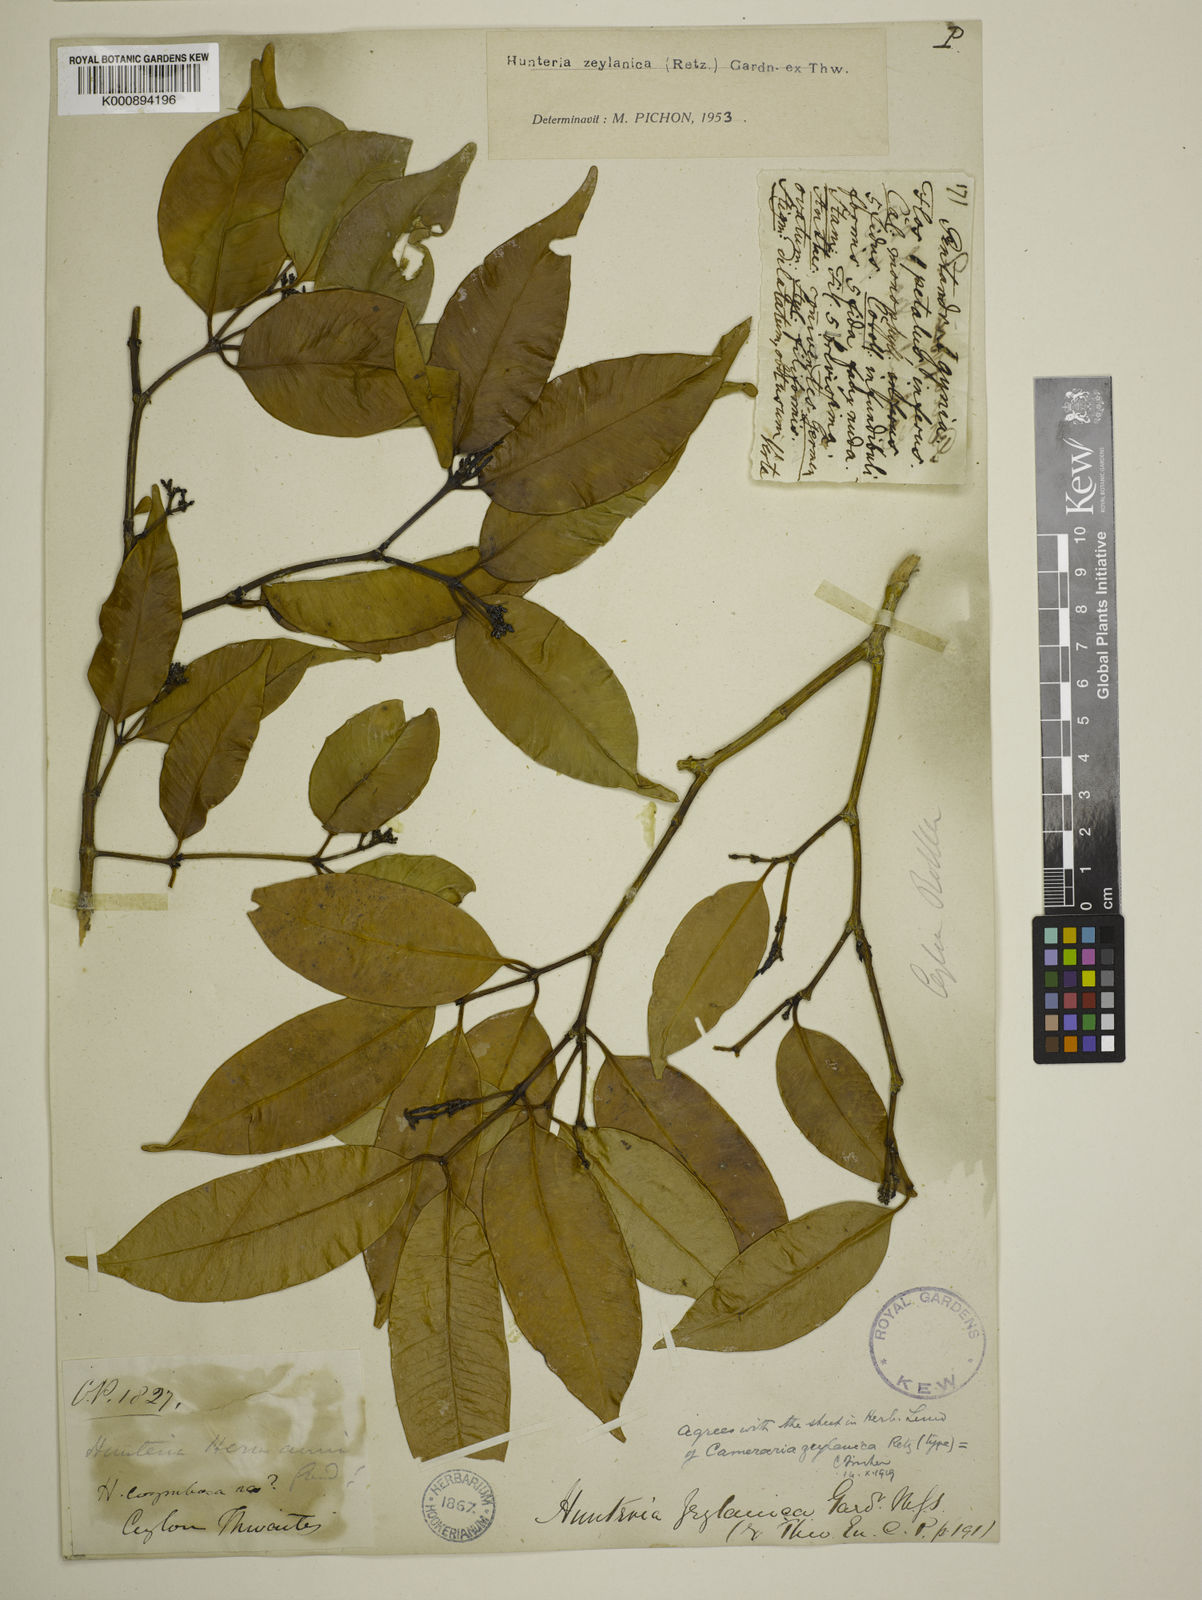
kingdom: Plantae
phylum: Tracheophyta
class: Magnoliopsida
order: Gentianales
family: Apocynaceae
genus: Hunteria
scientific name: Hunteria zeylanica
